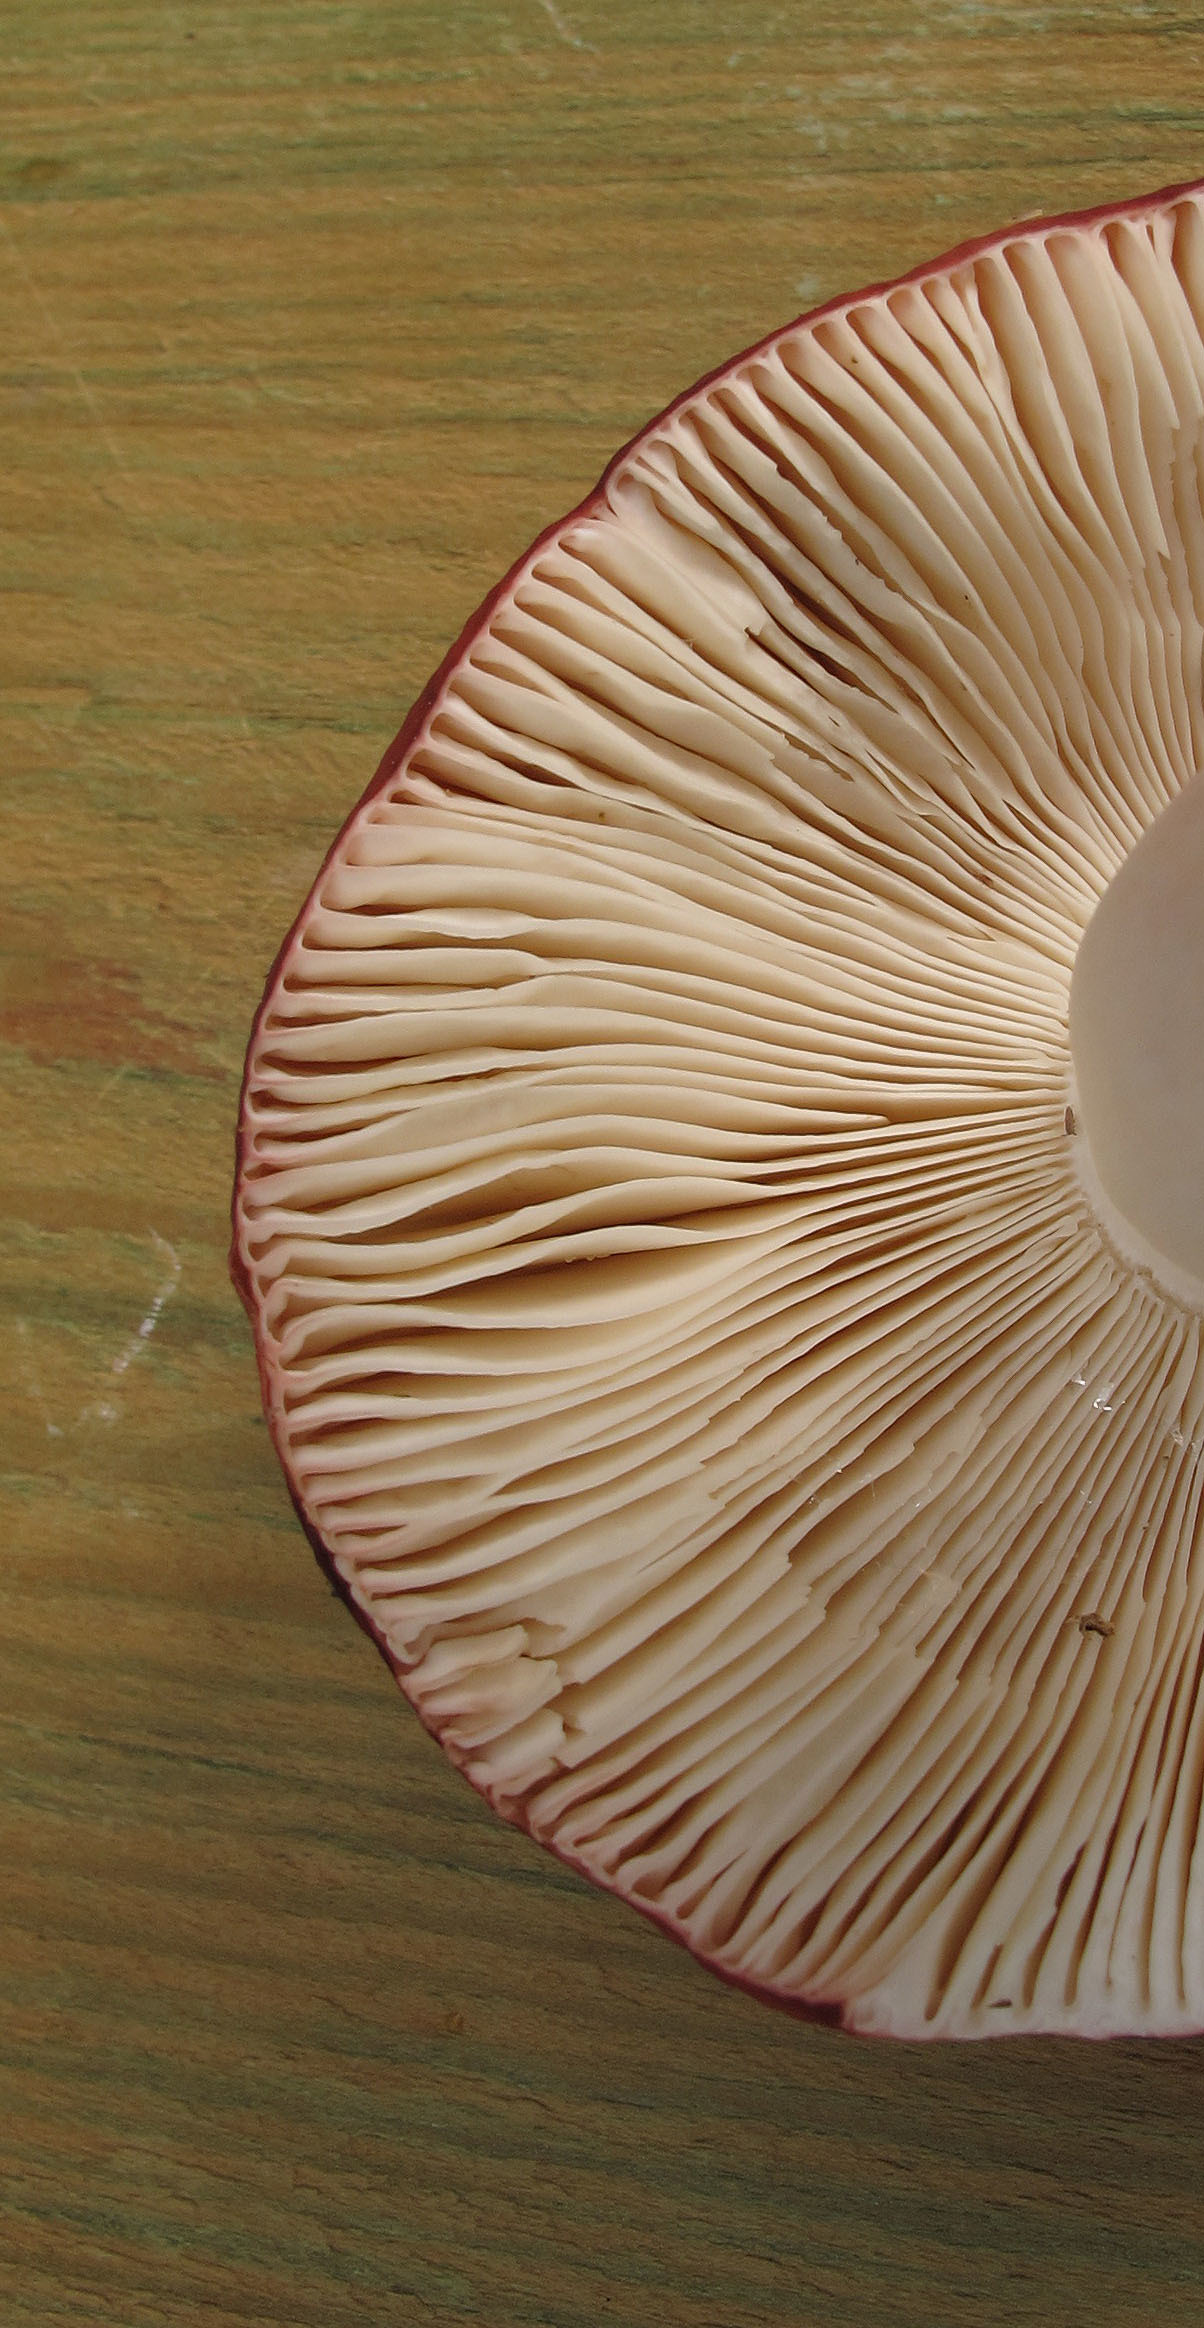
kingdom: Fungi
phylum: Basidiomycota
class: Agaricomycetes
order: Russulales
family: Russulaceae
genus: Russula
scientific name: Russula paludosa
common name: Hintapink
